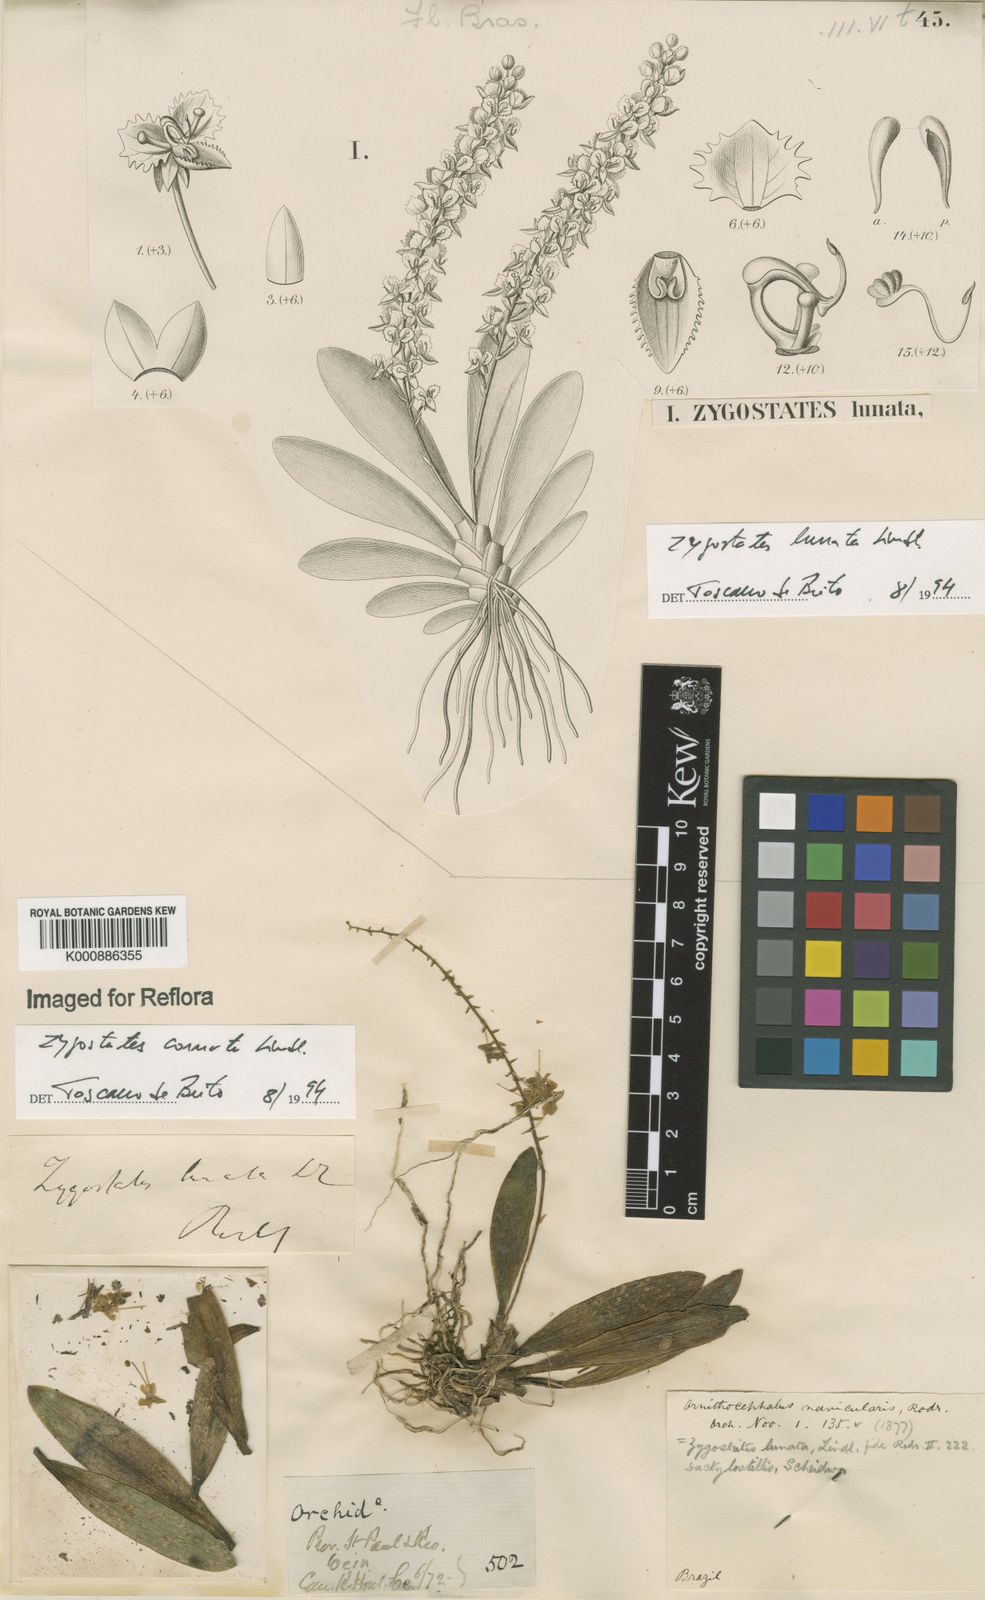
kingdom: Plantae
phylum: Tracheophyta
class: Liliopsida
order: Asparagales
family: Orchidaceae
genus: Zygostates
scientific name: Zygostates lunata
